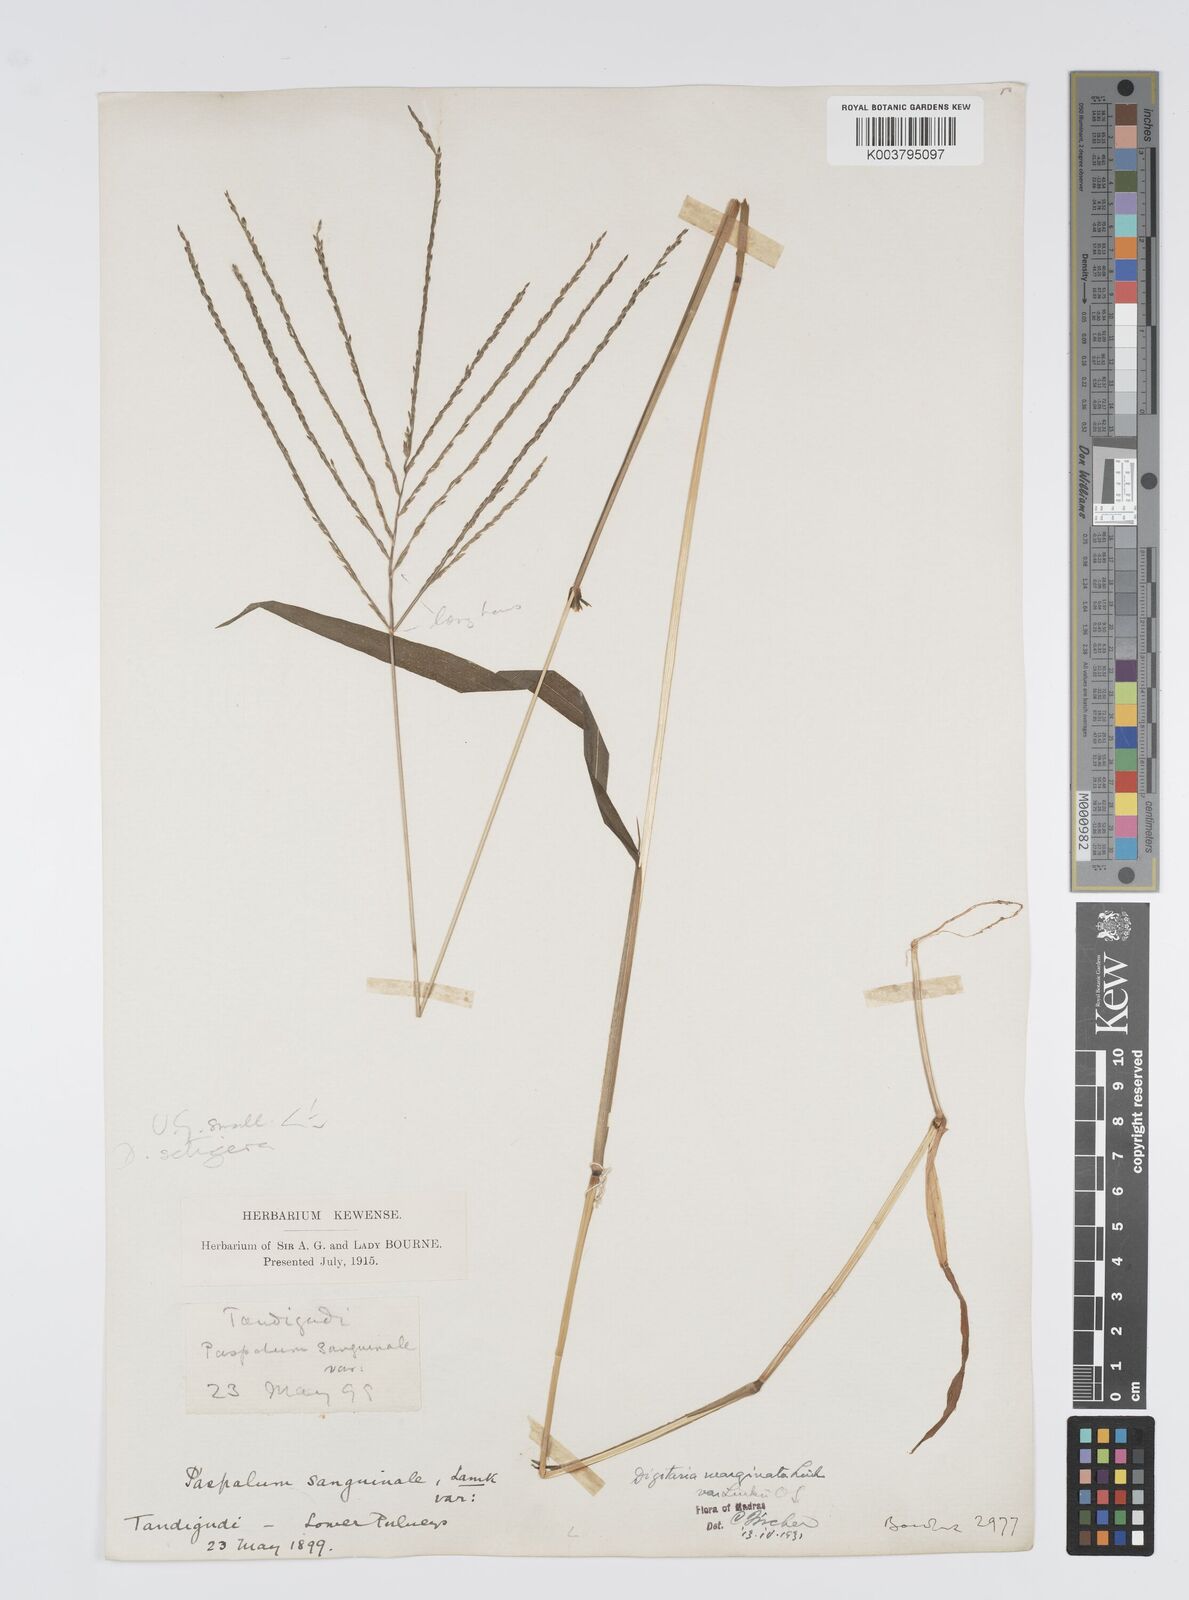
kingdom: Plantae
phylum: Tracheophyta
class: Liliopsida
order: Poales
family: Poaceae
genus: Digitaria
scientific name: Digitaria setigera
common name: East indian crabgrass
